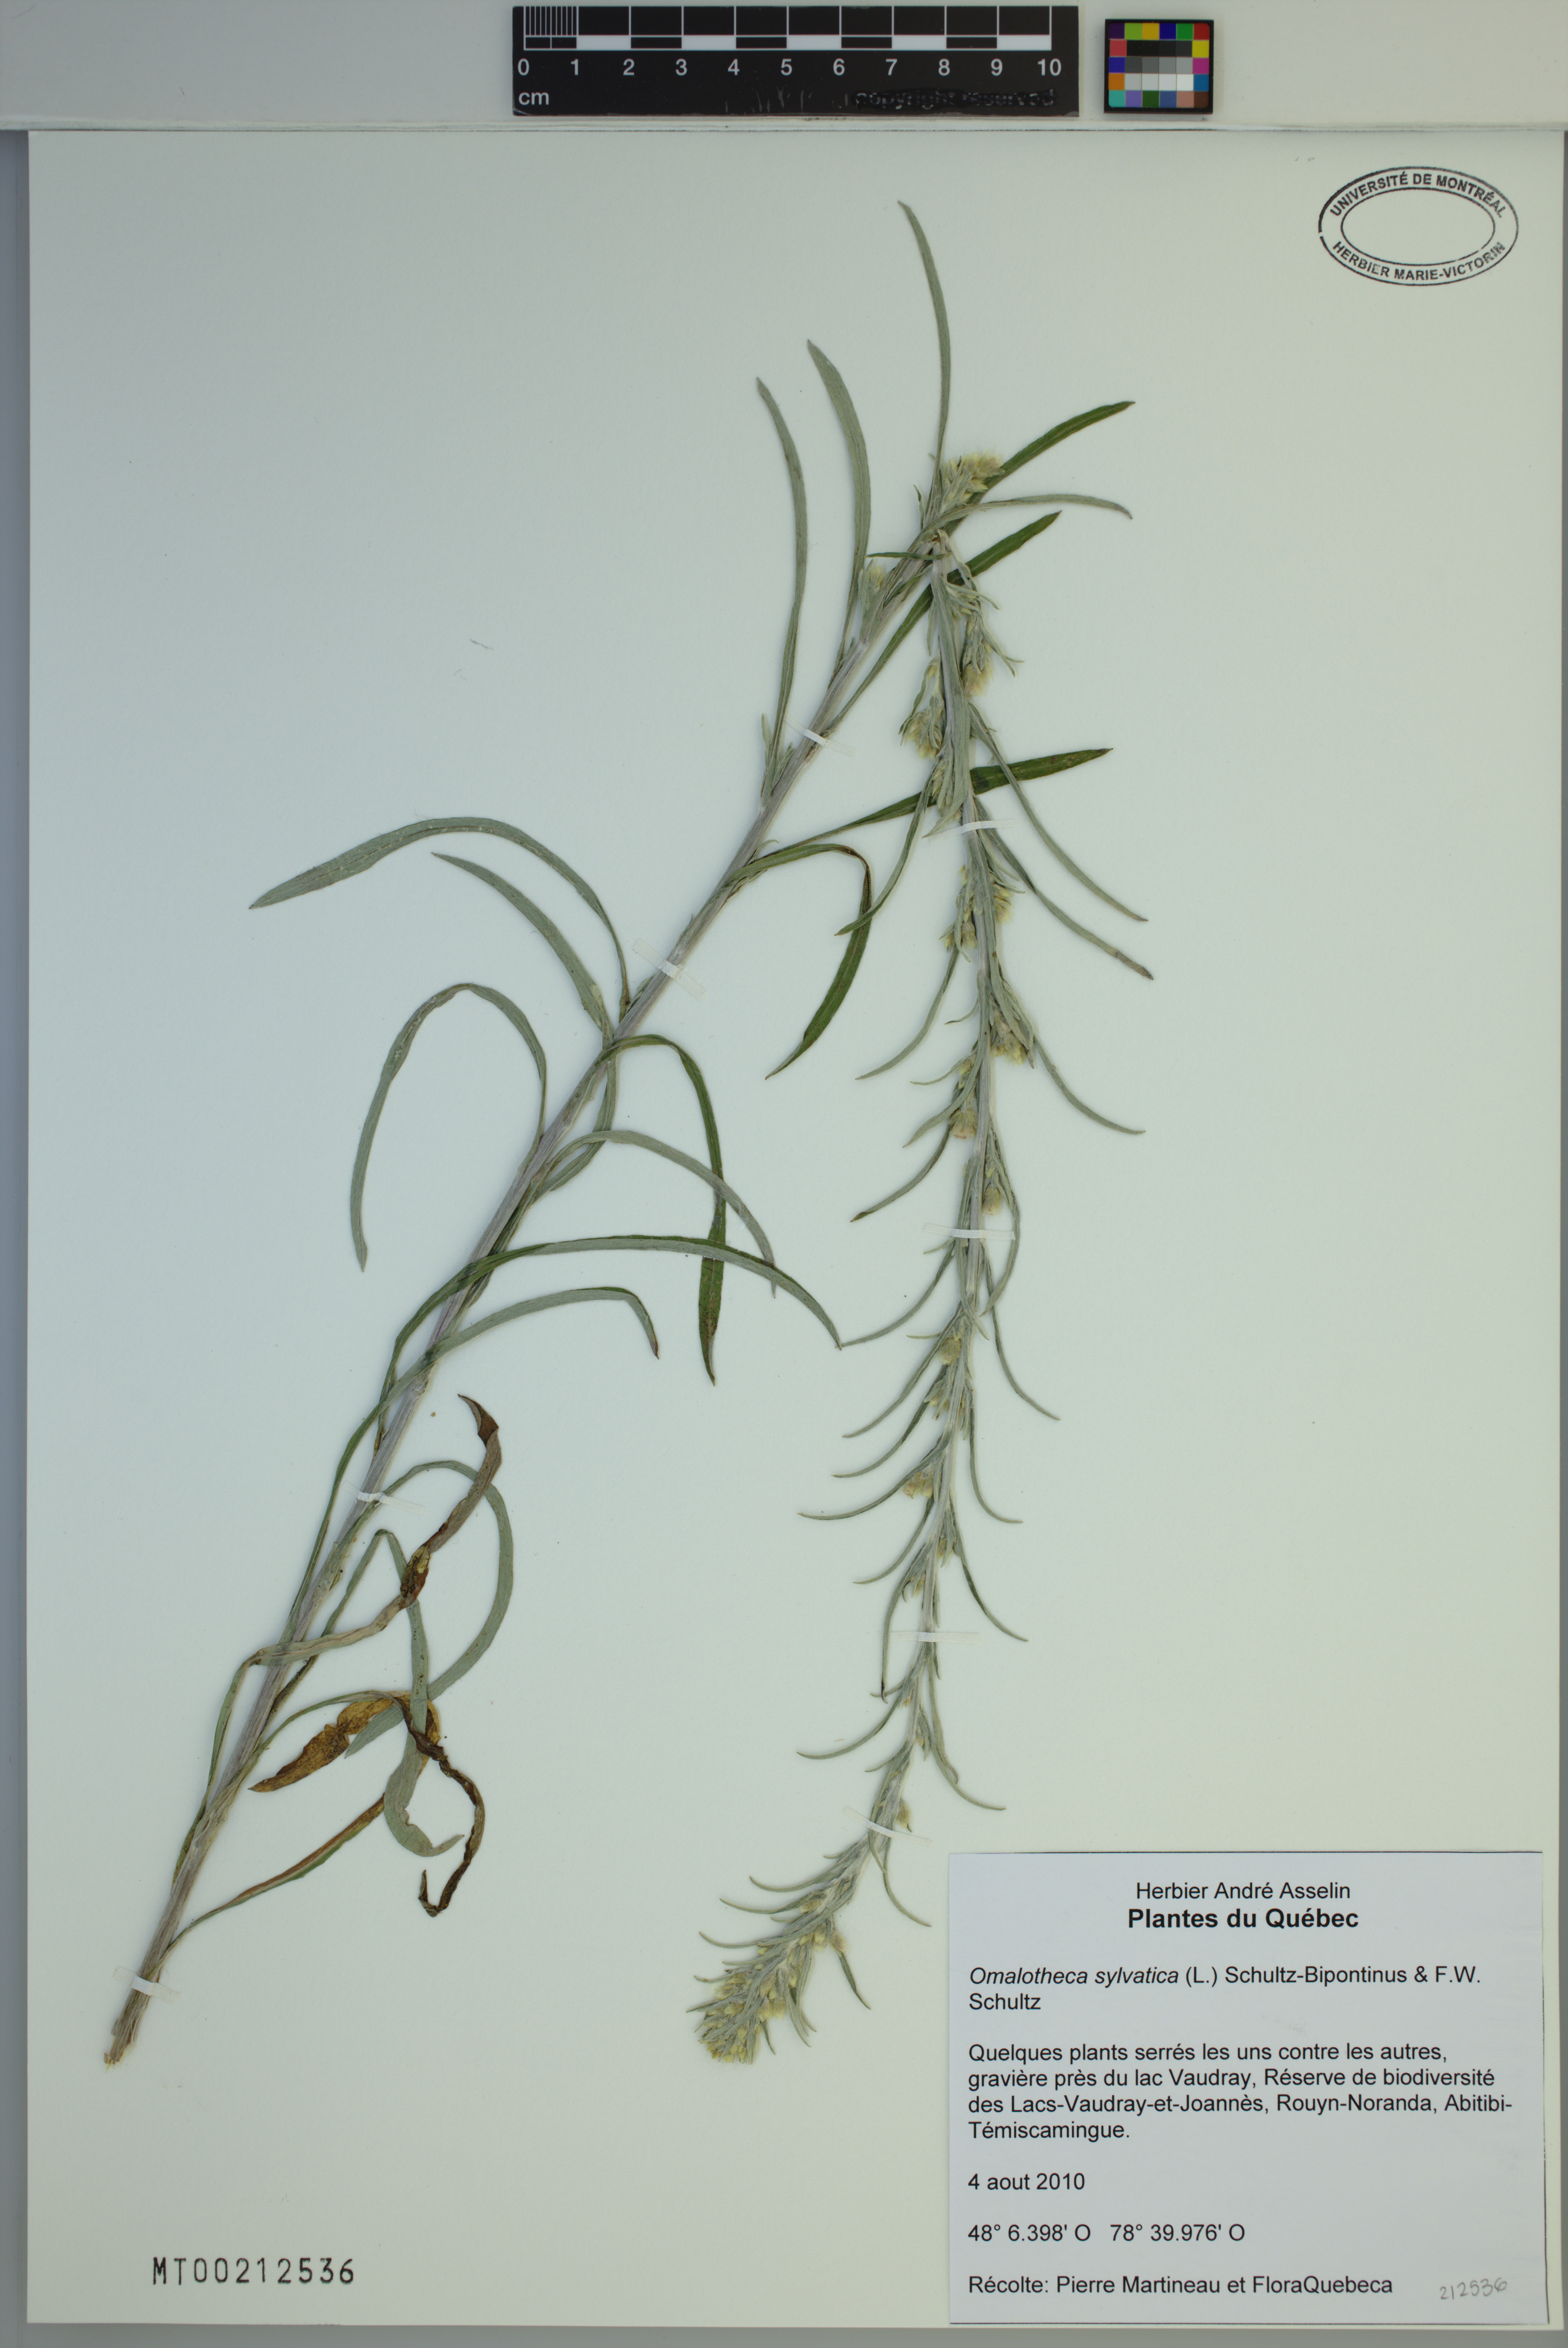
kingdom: Plantae
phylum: Tracheophyta
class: Magnoliopsida
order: Asterales
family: Asteraceae
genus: Omalotheca
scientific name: Omalotheca sylvatica
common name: Heath cudweed
